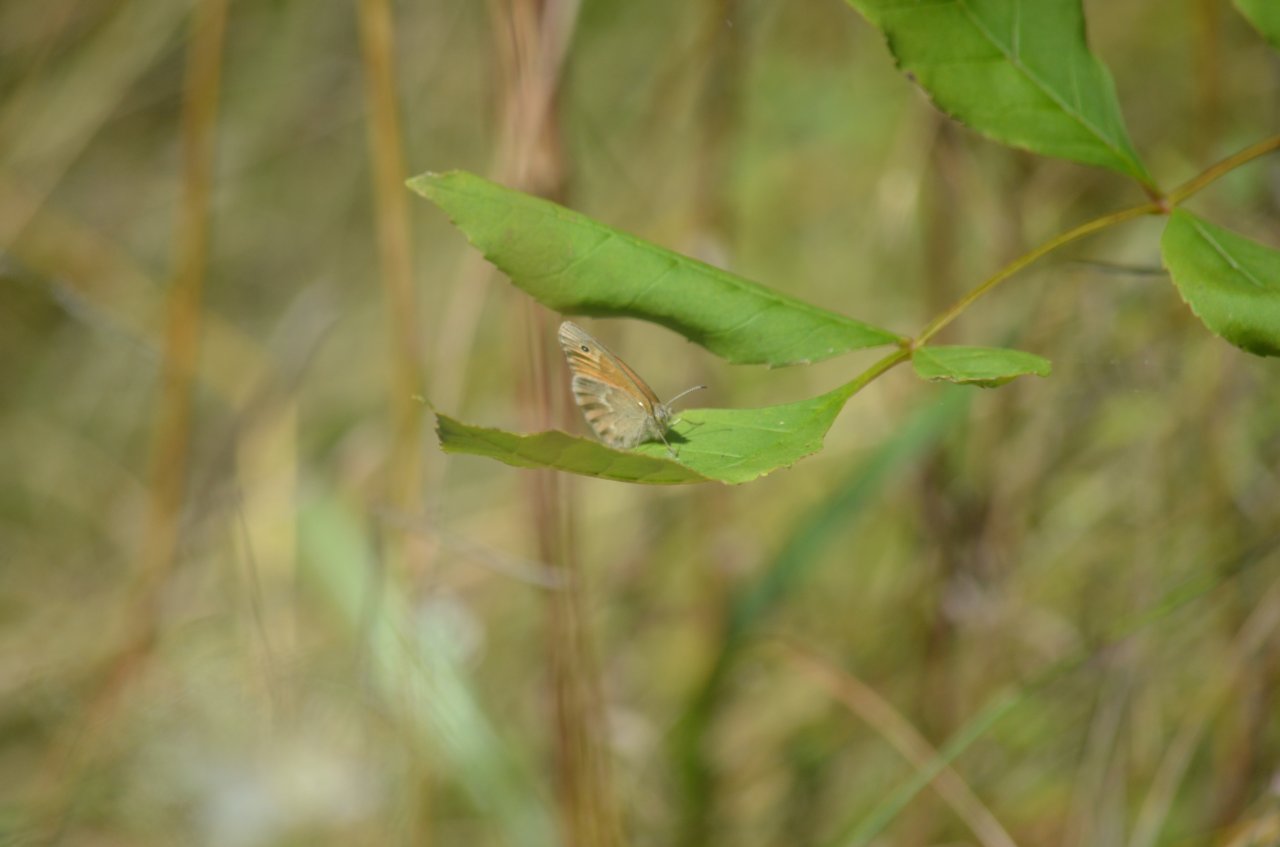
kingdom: Animalia
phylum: Arthropoda
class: Insecta
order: Lepidoptera
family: Nymphalidae
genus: Coenonympha
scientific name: Coenonympha tullia
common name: Large Heath
